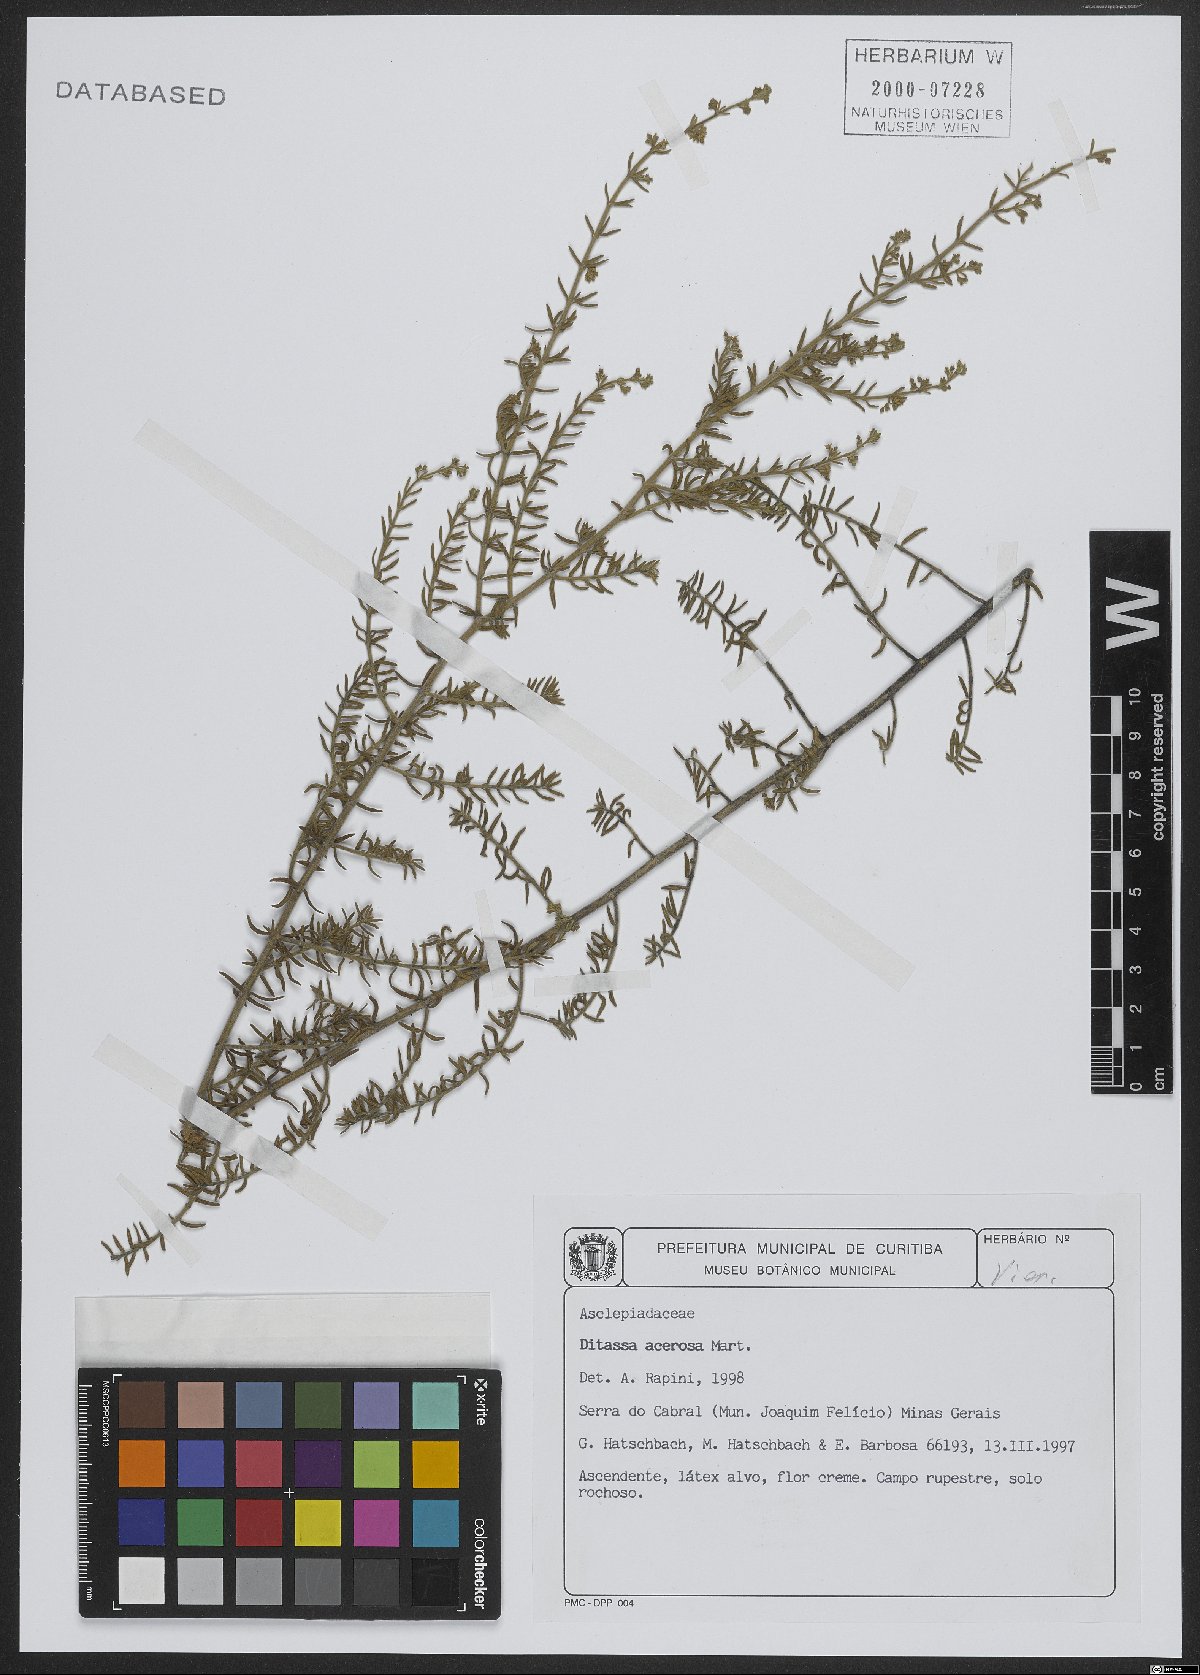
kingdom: Plantae
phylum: Tracheophyta
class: Magnoliopsida
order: Gentianales
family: Apocynaceae
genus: Minaria
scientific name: Minaria acerosa
